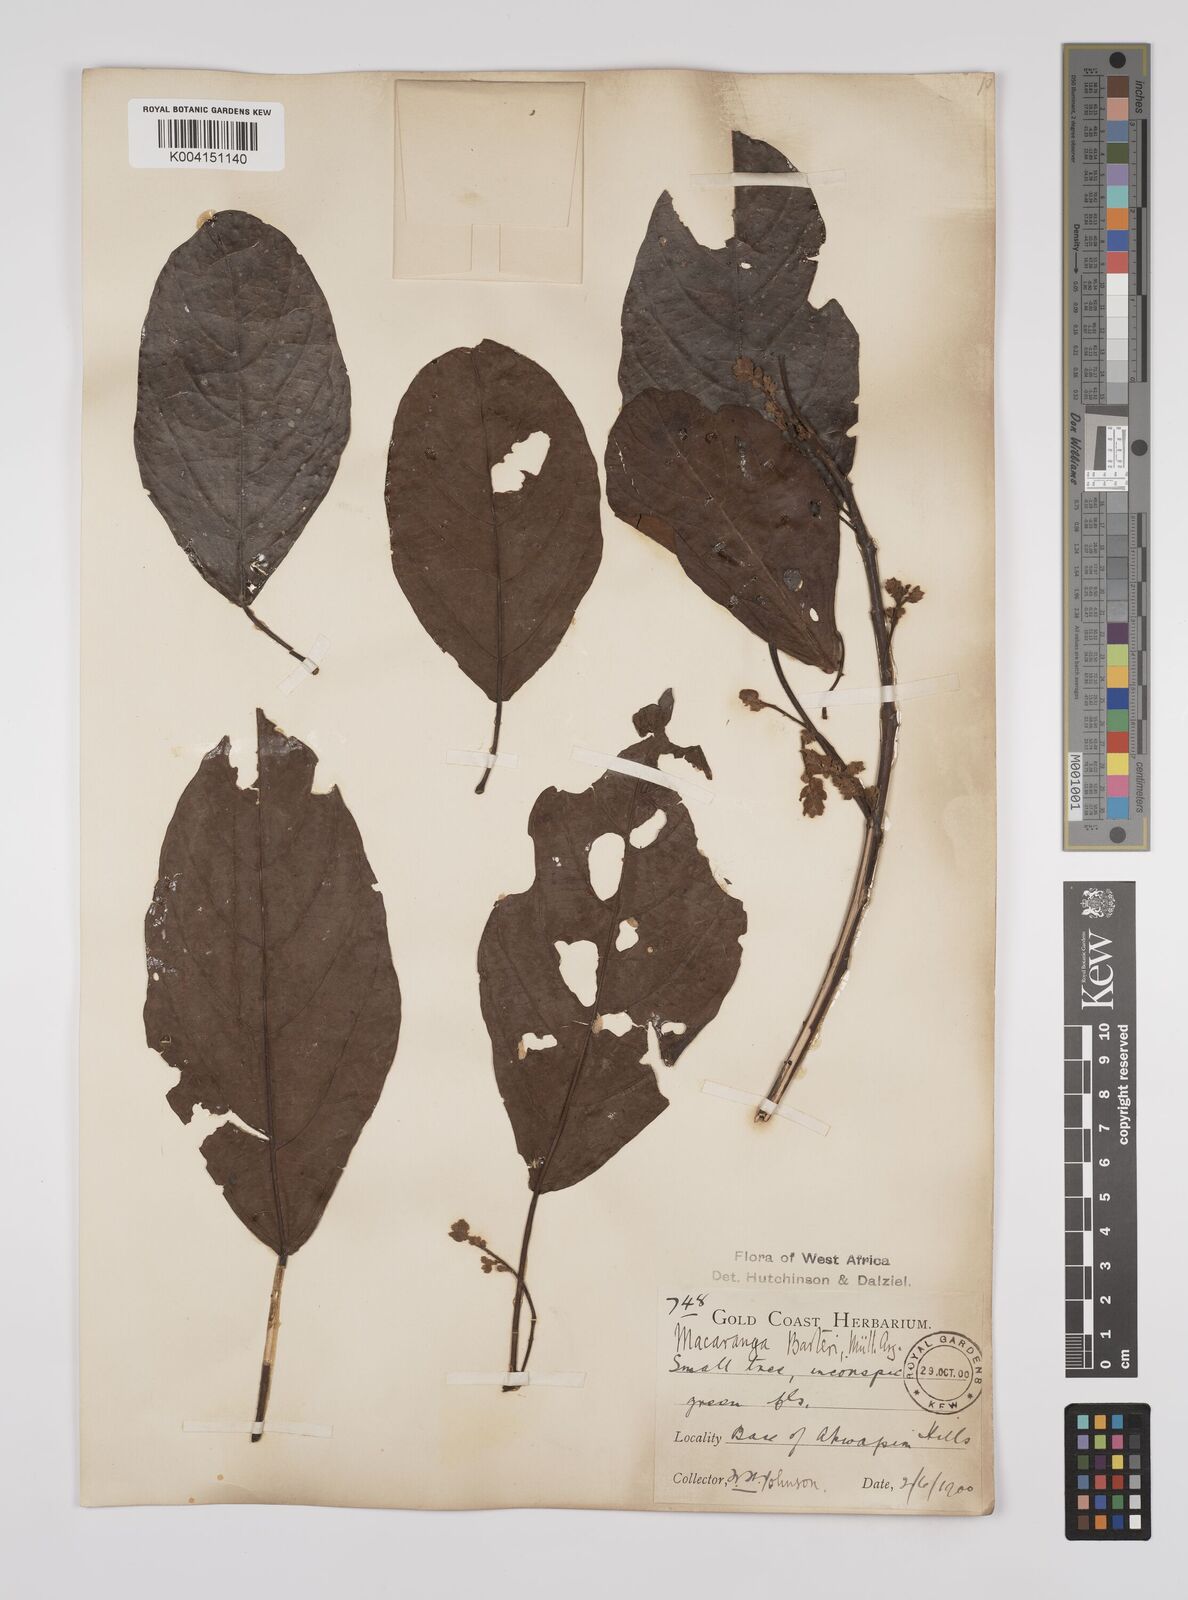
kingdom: Plantae
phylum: Tracheophyta
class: Magnoliopsida
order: Malpighiales
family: Euphorbiaceae
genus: Macaranga
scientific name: Macaranga barteri
